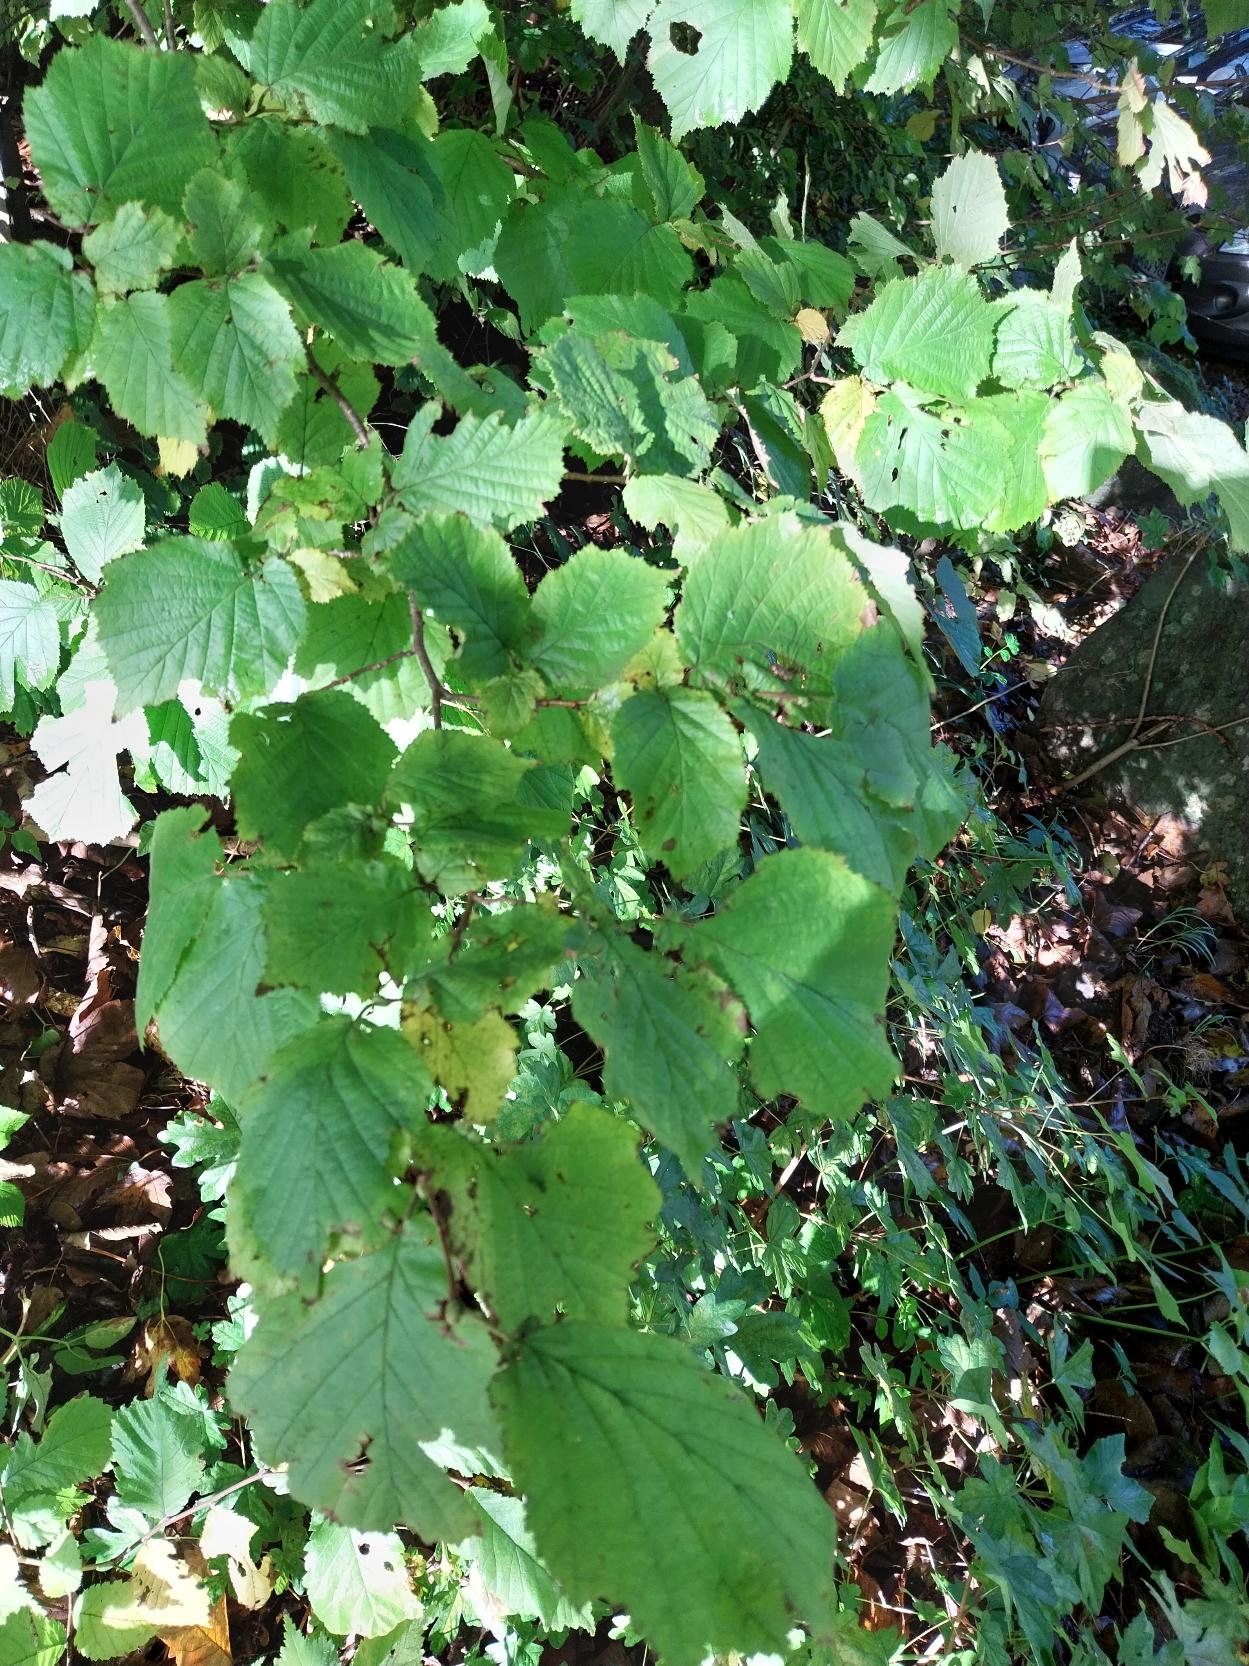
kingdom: Plantae
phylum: Tracheophyta
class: Magnoliopsida
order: Fagales
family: Betulaceae
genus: Corylus
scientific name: Corylus avellana
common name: Hassel
